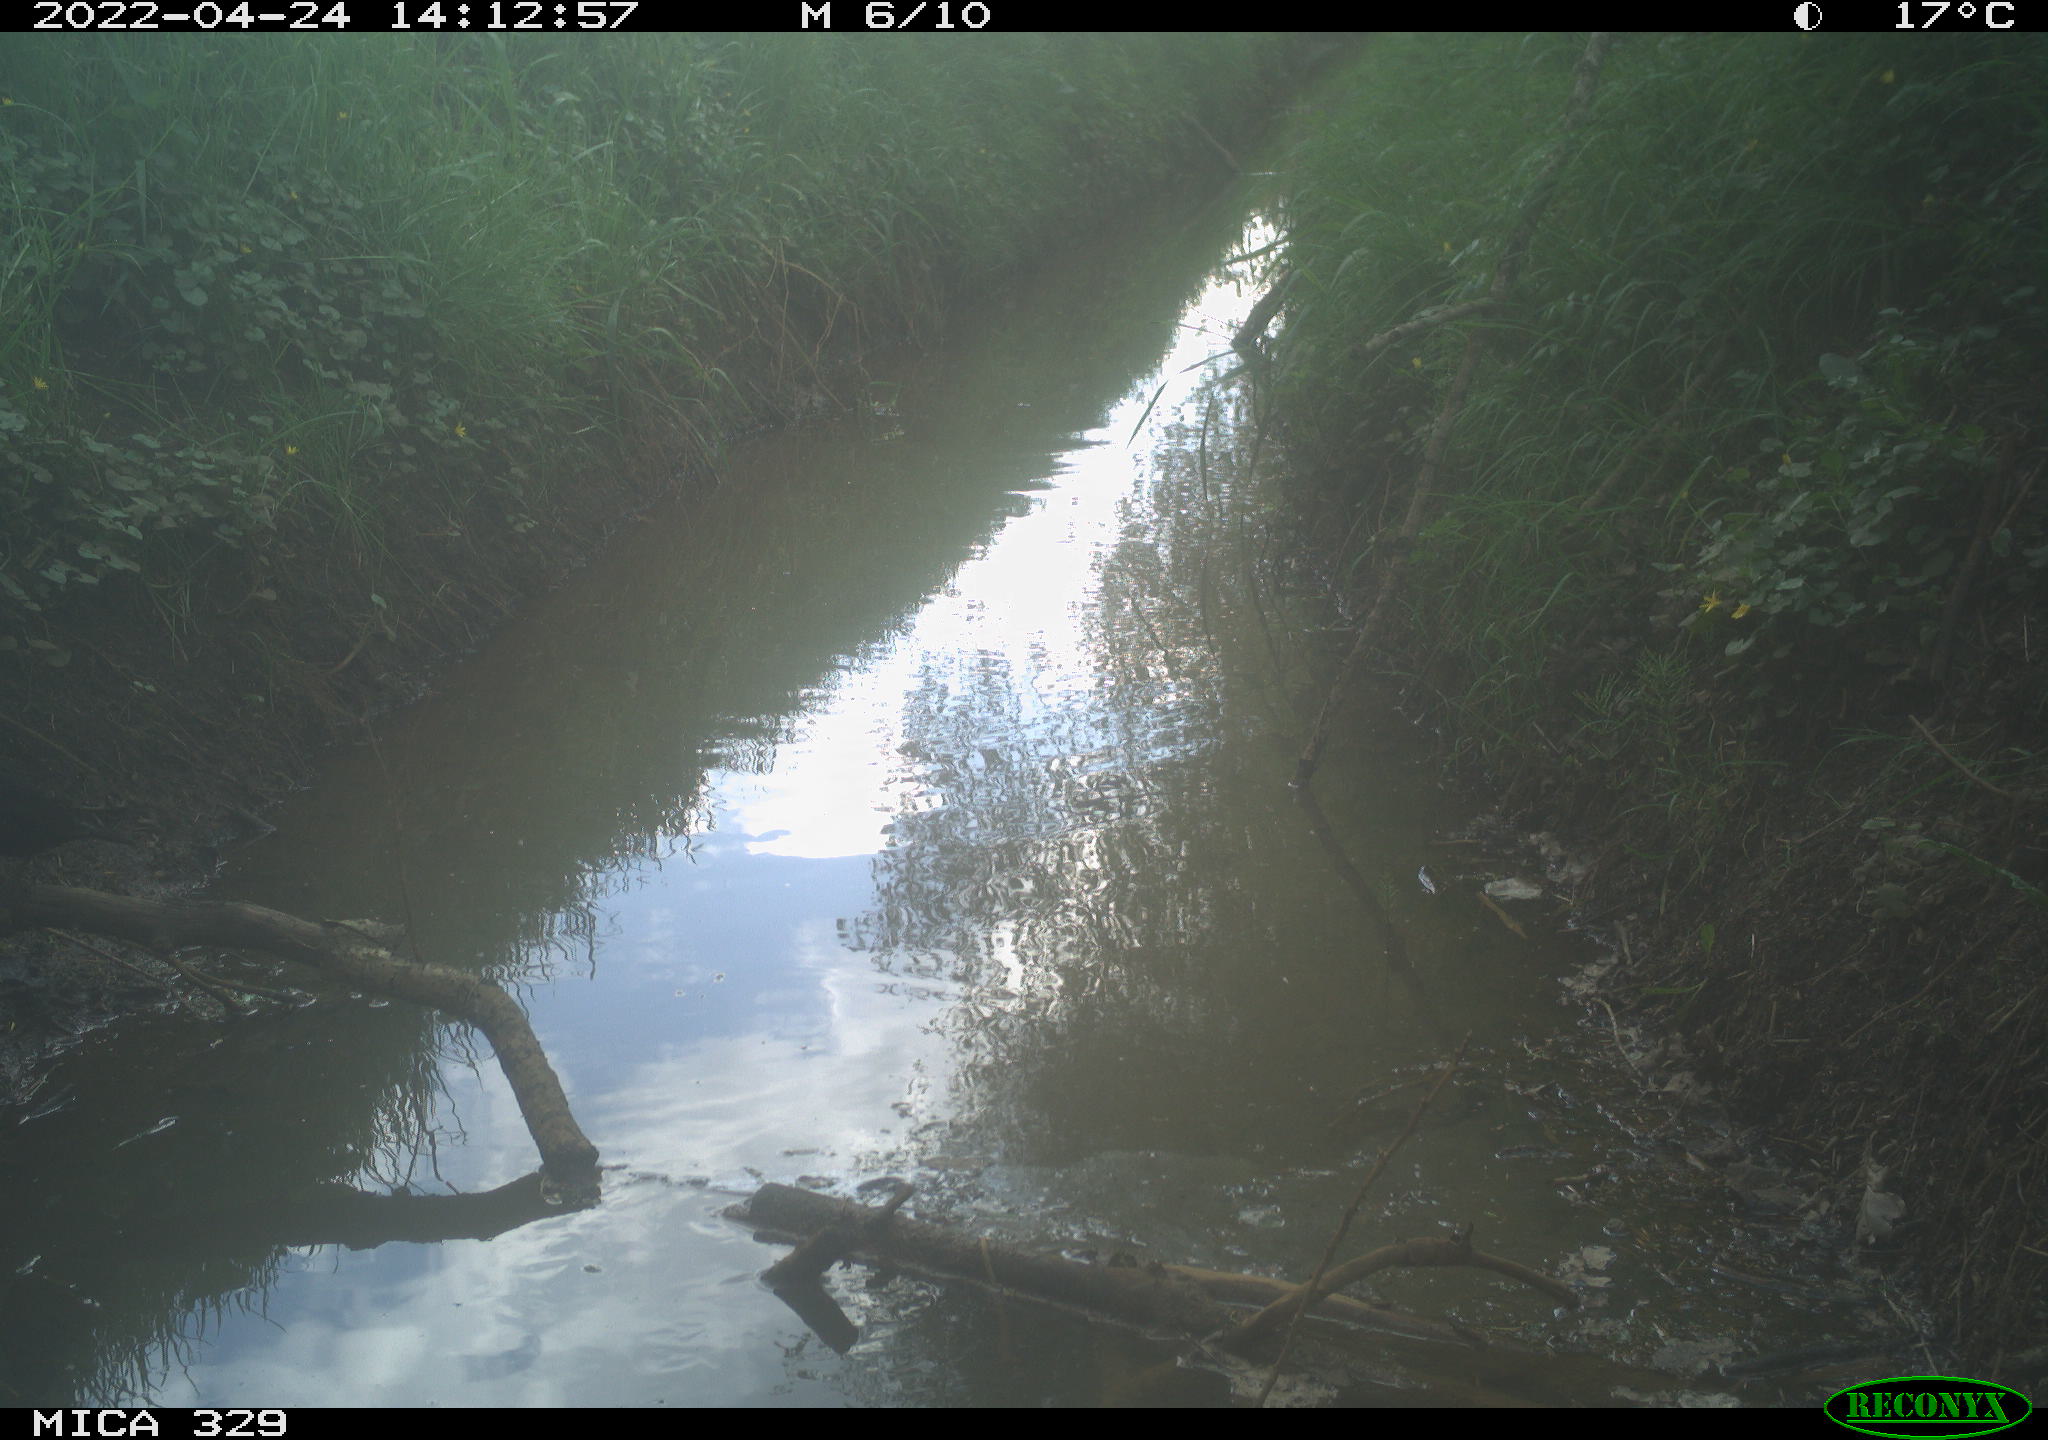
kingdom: Animalia
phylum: Chordata
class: Aves
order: Passeriformes
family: Turdidae
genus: Turdus
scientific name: Turdus merula
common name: Common blackbird
